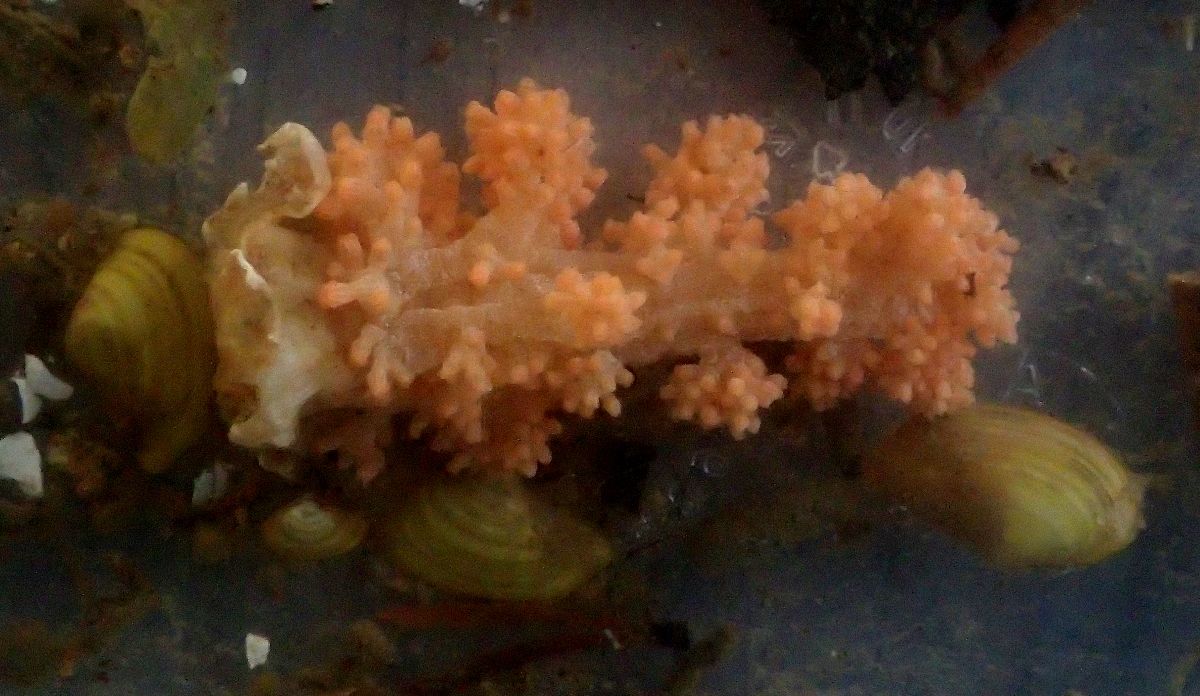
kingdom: Animalia
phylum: Cnidaria
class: Anthozoa
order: Malacalcyonacea
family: Alcyoniidae
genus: Gersemia
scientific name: Gersemia fruticosa
